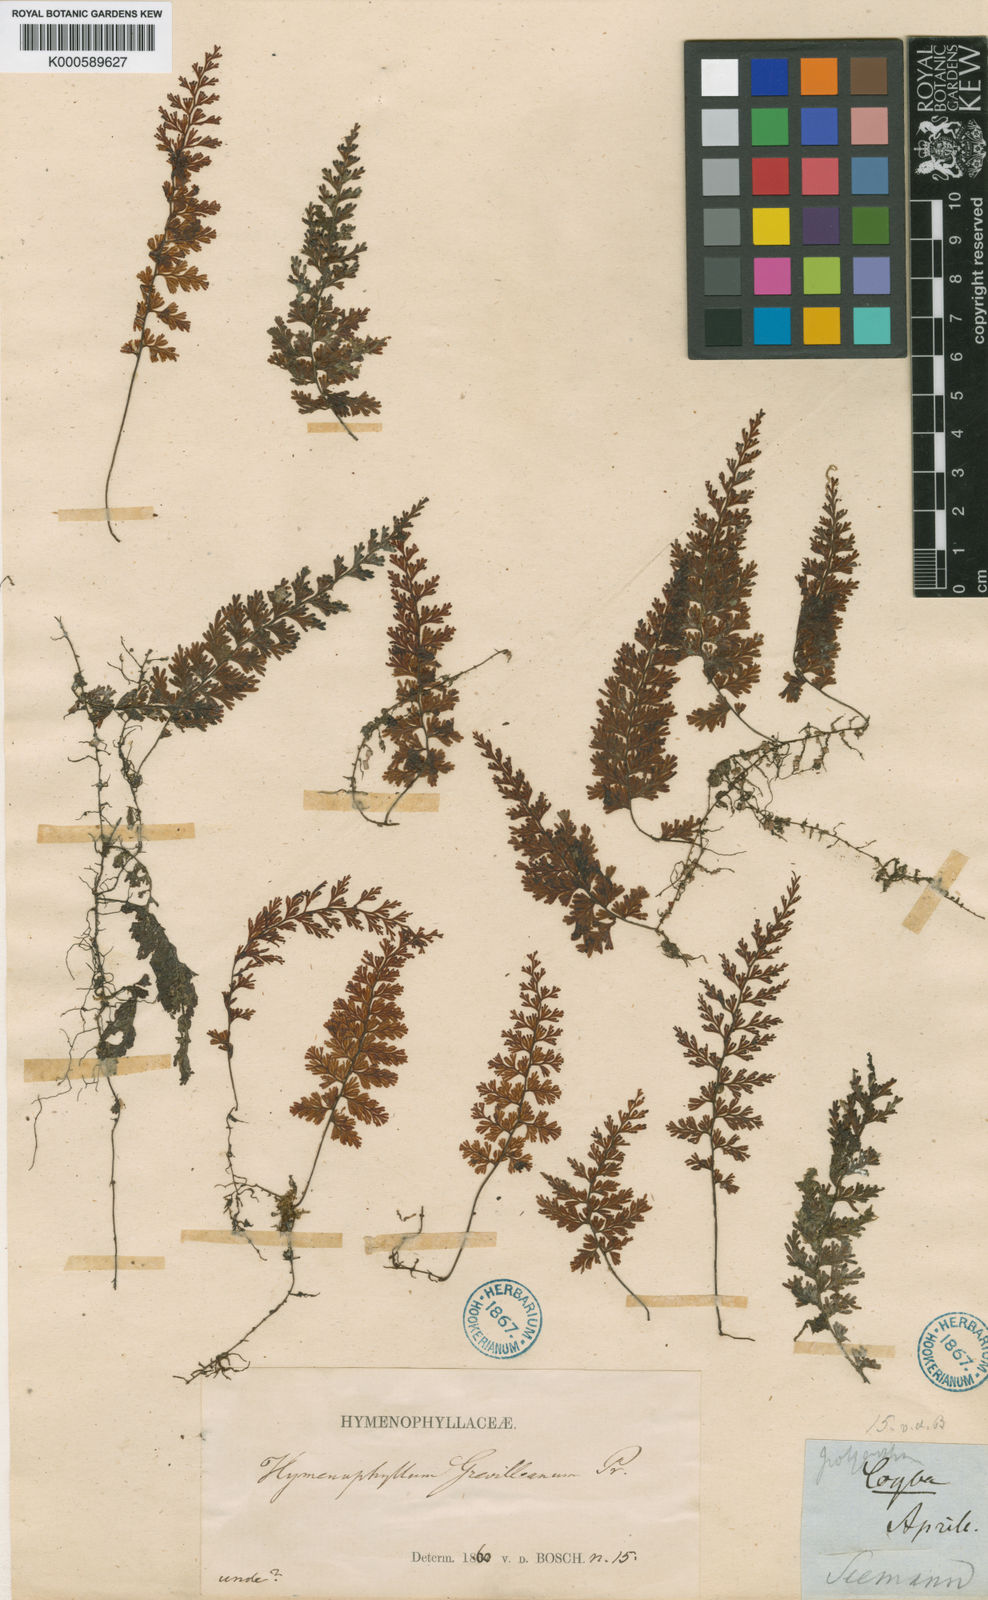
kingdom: Plantae
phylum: Tracheophyta
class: Polypodiopsida
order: Hymenophyllales
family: Hymenophyllaceae
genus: Hymenophyllum
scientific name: Hymenophyllum polyanthos
